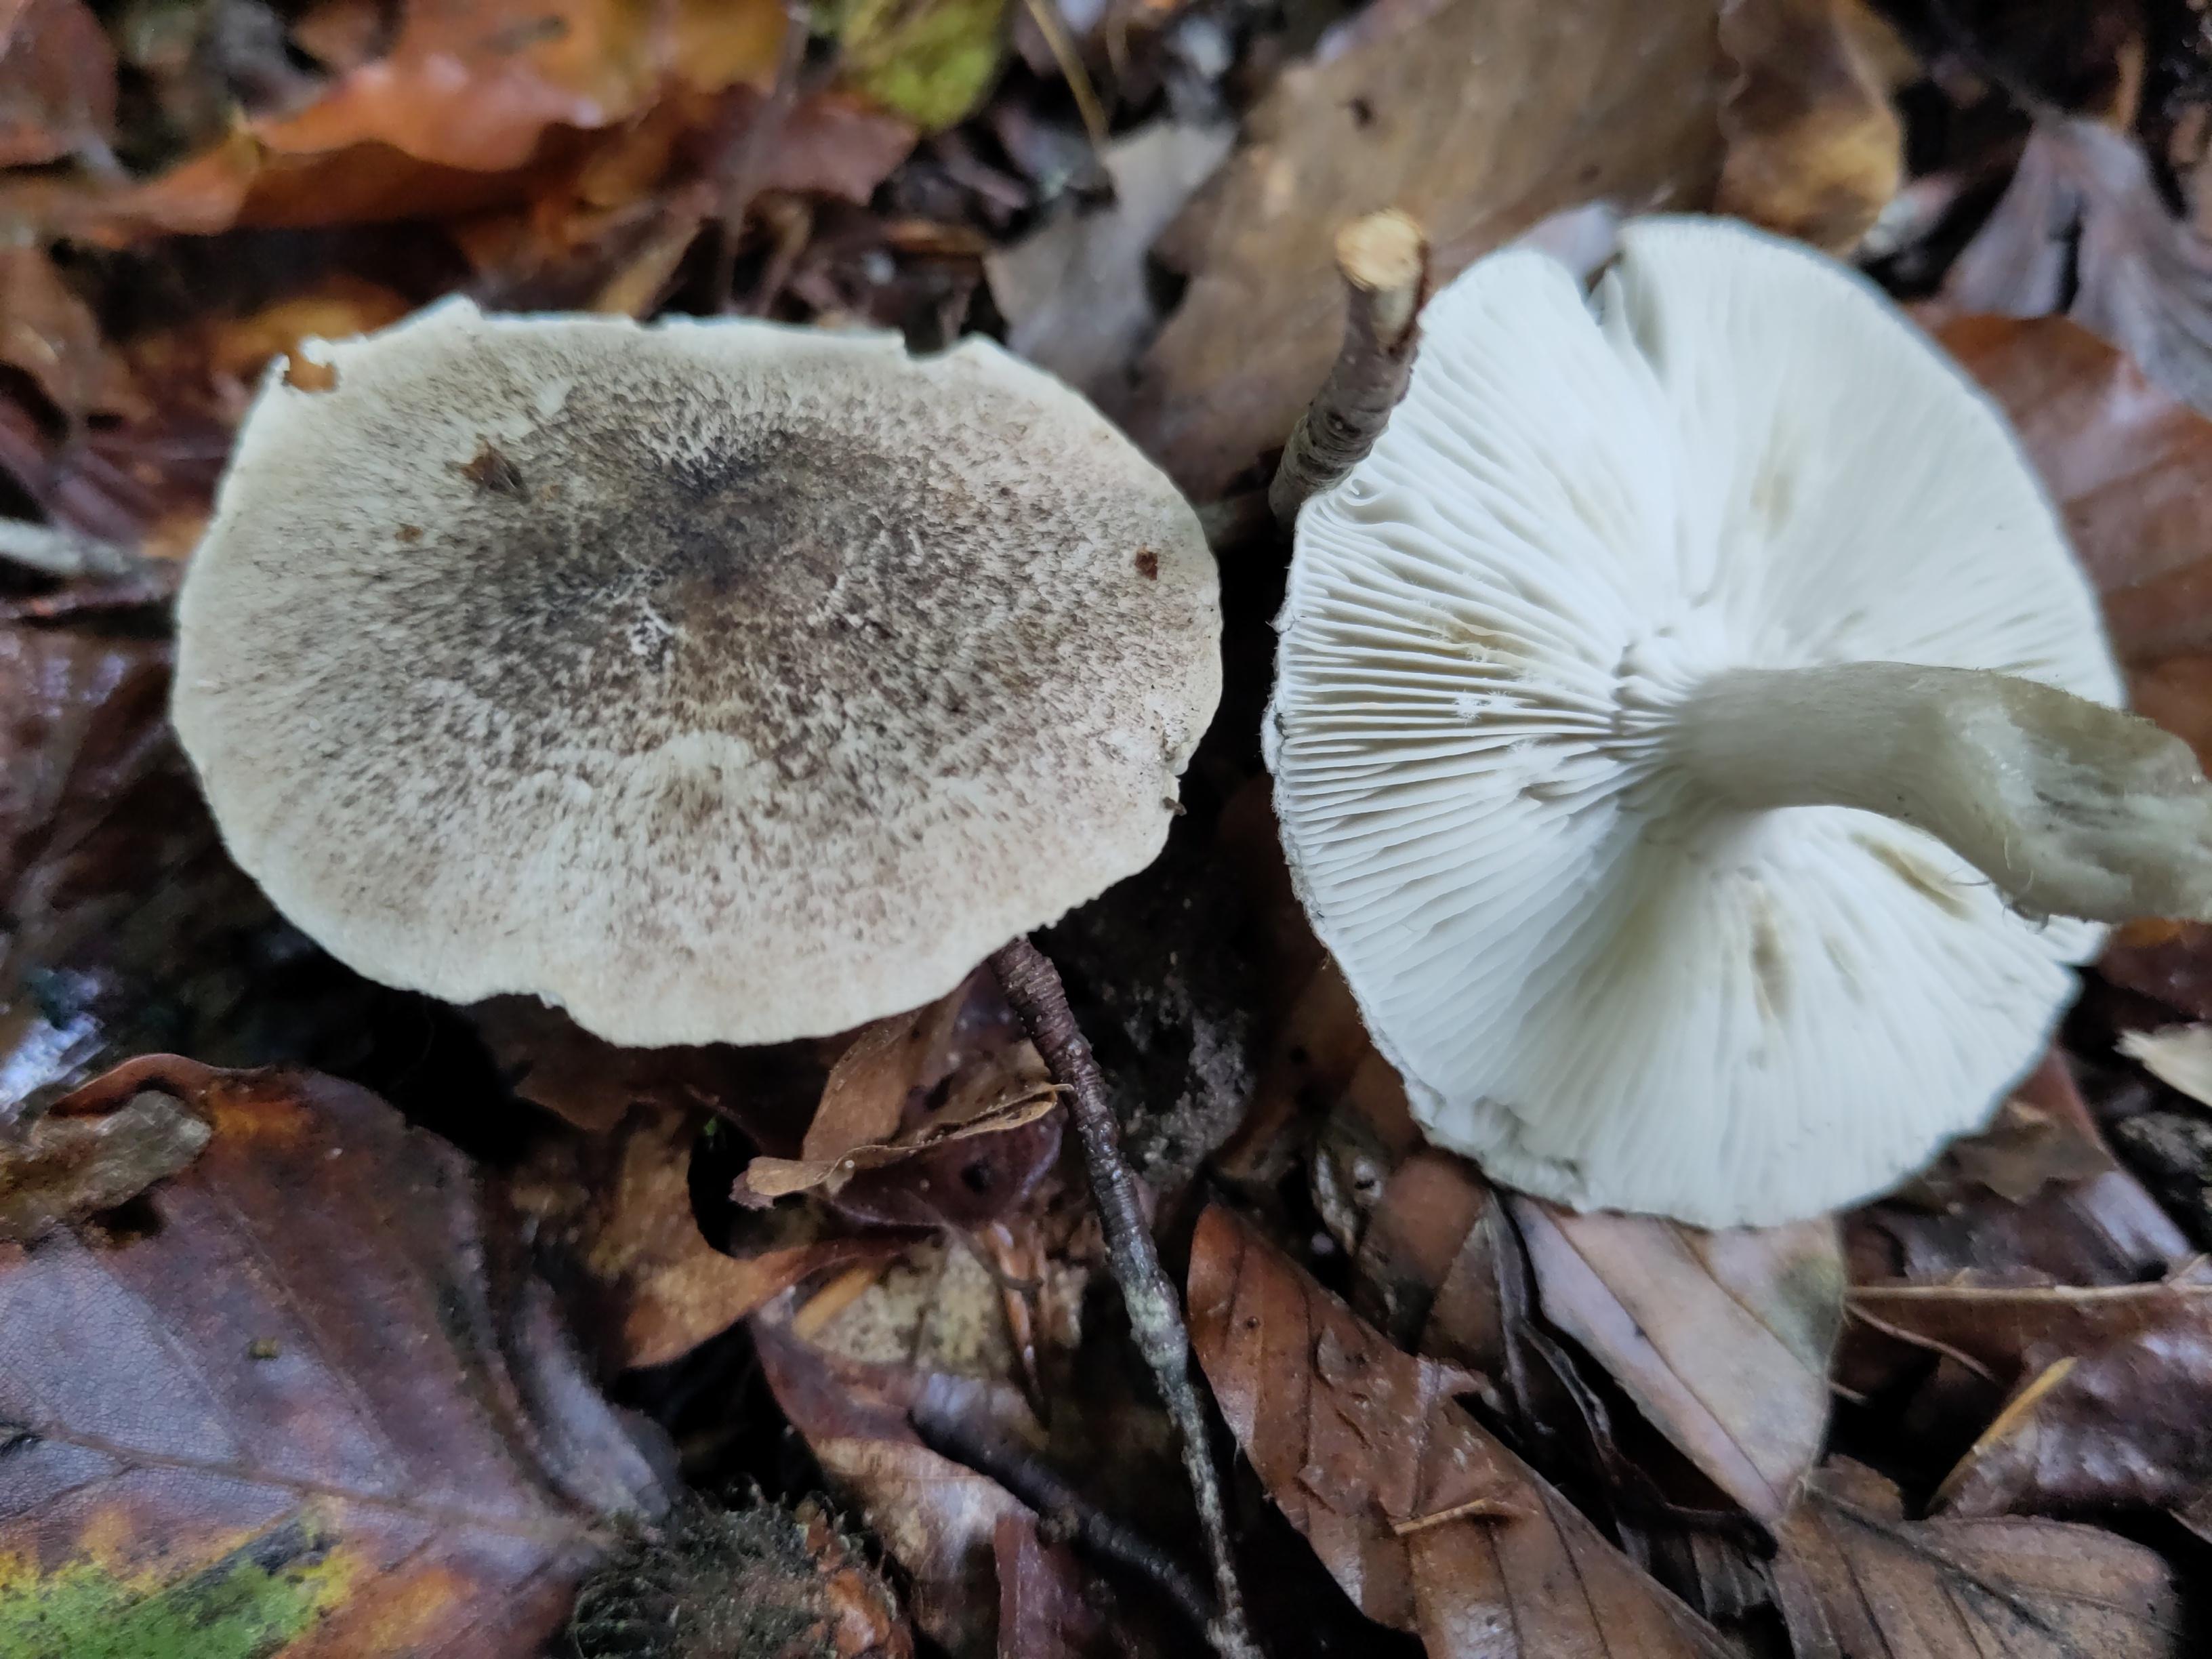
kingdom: Fungi
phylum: Basidiomycota
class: Agaricomycetes
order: Agaricales
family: Tricholomataceae
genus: Tricholoma
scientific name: Tricholoma
